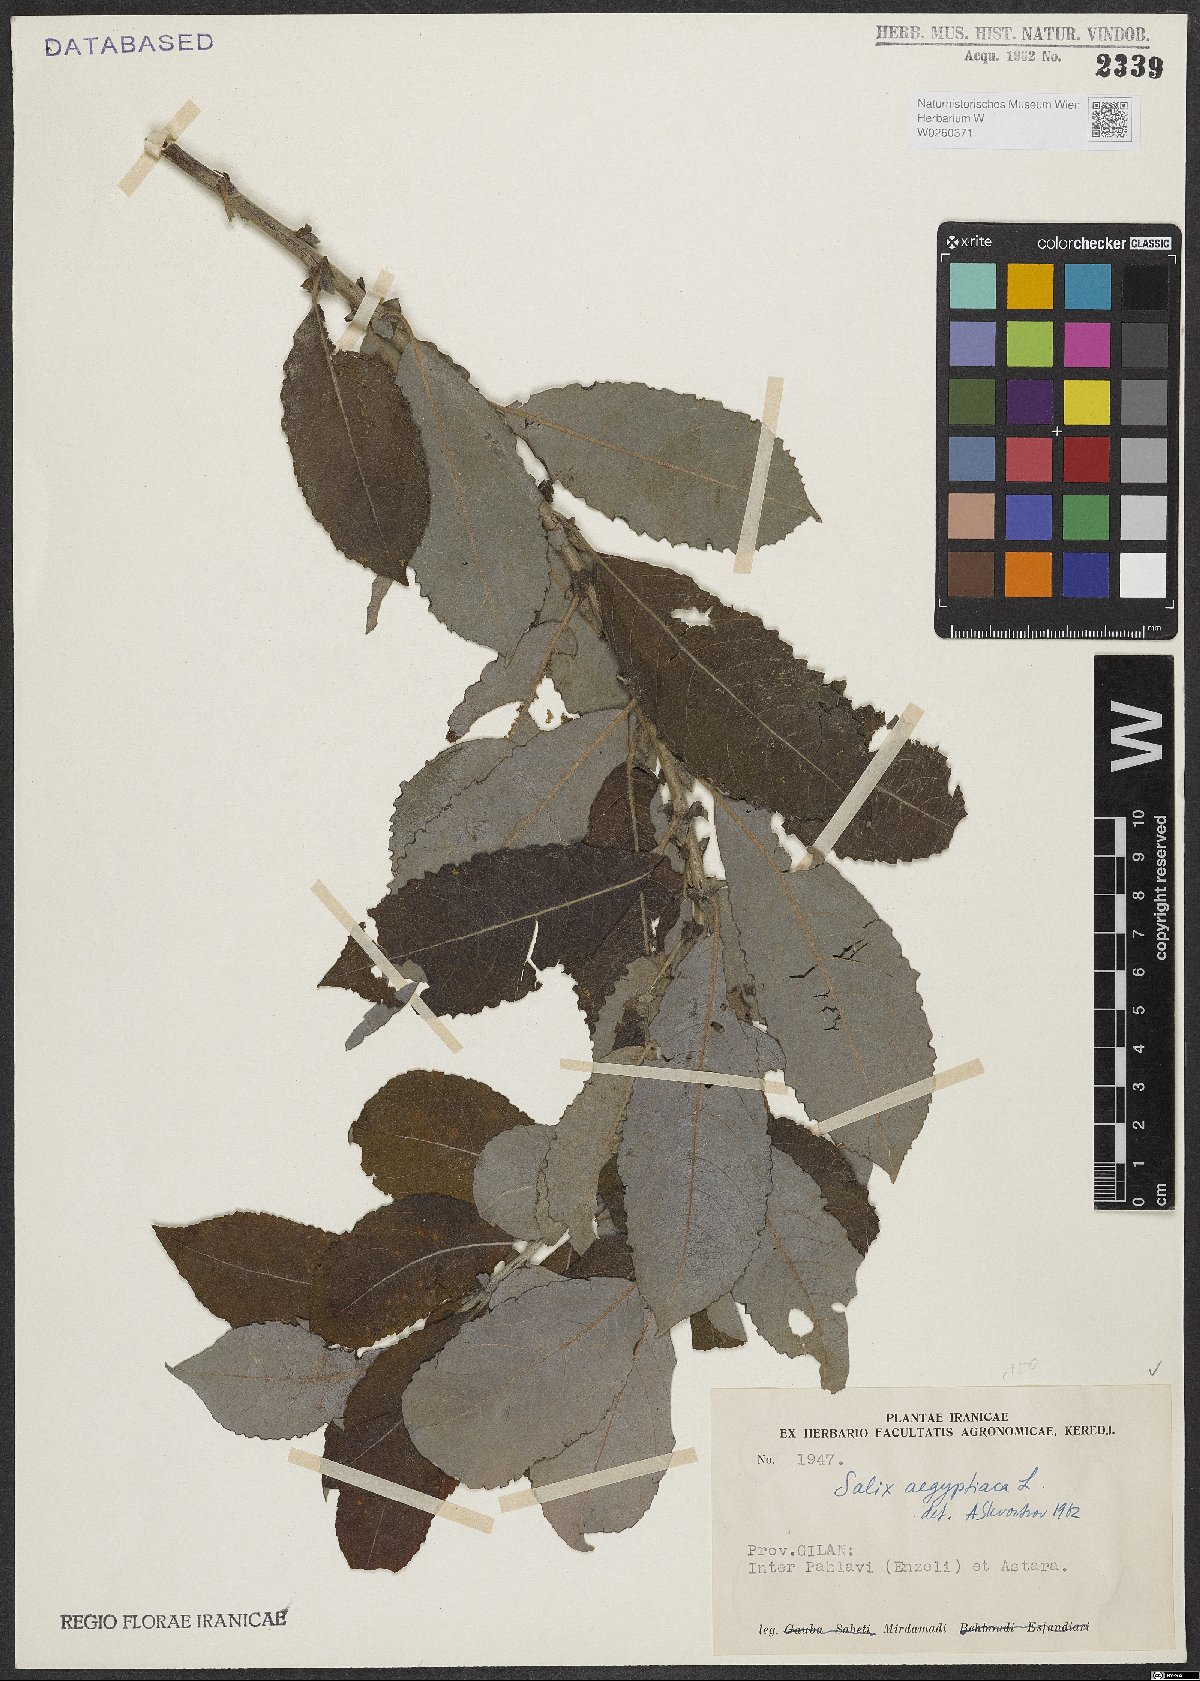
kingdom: Plantae
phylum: Tracheophyta
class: Magnoliopsida
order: Malpighiales
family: Salicaceae
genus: Salix
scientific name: Salix aegyptiaca
